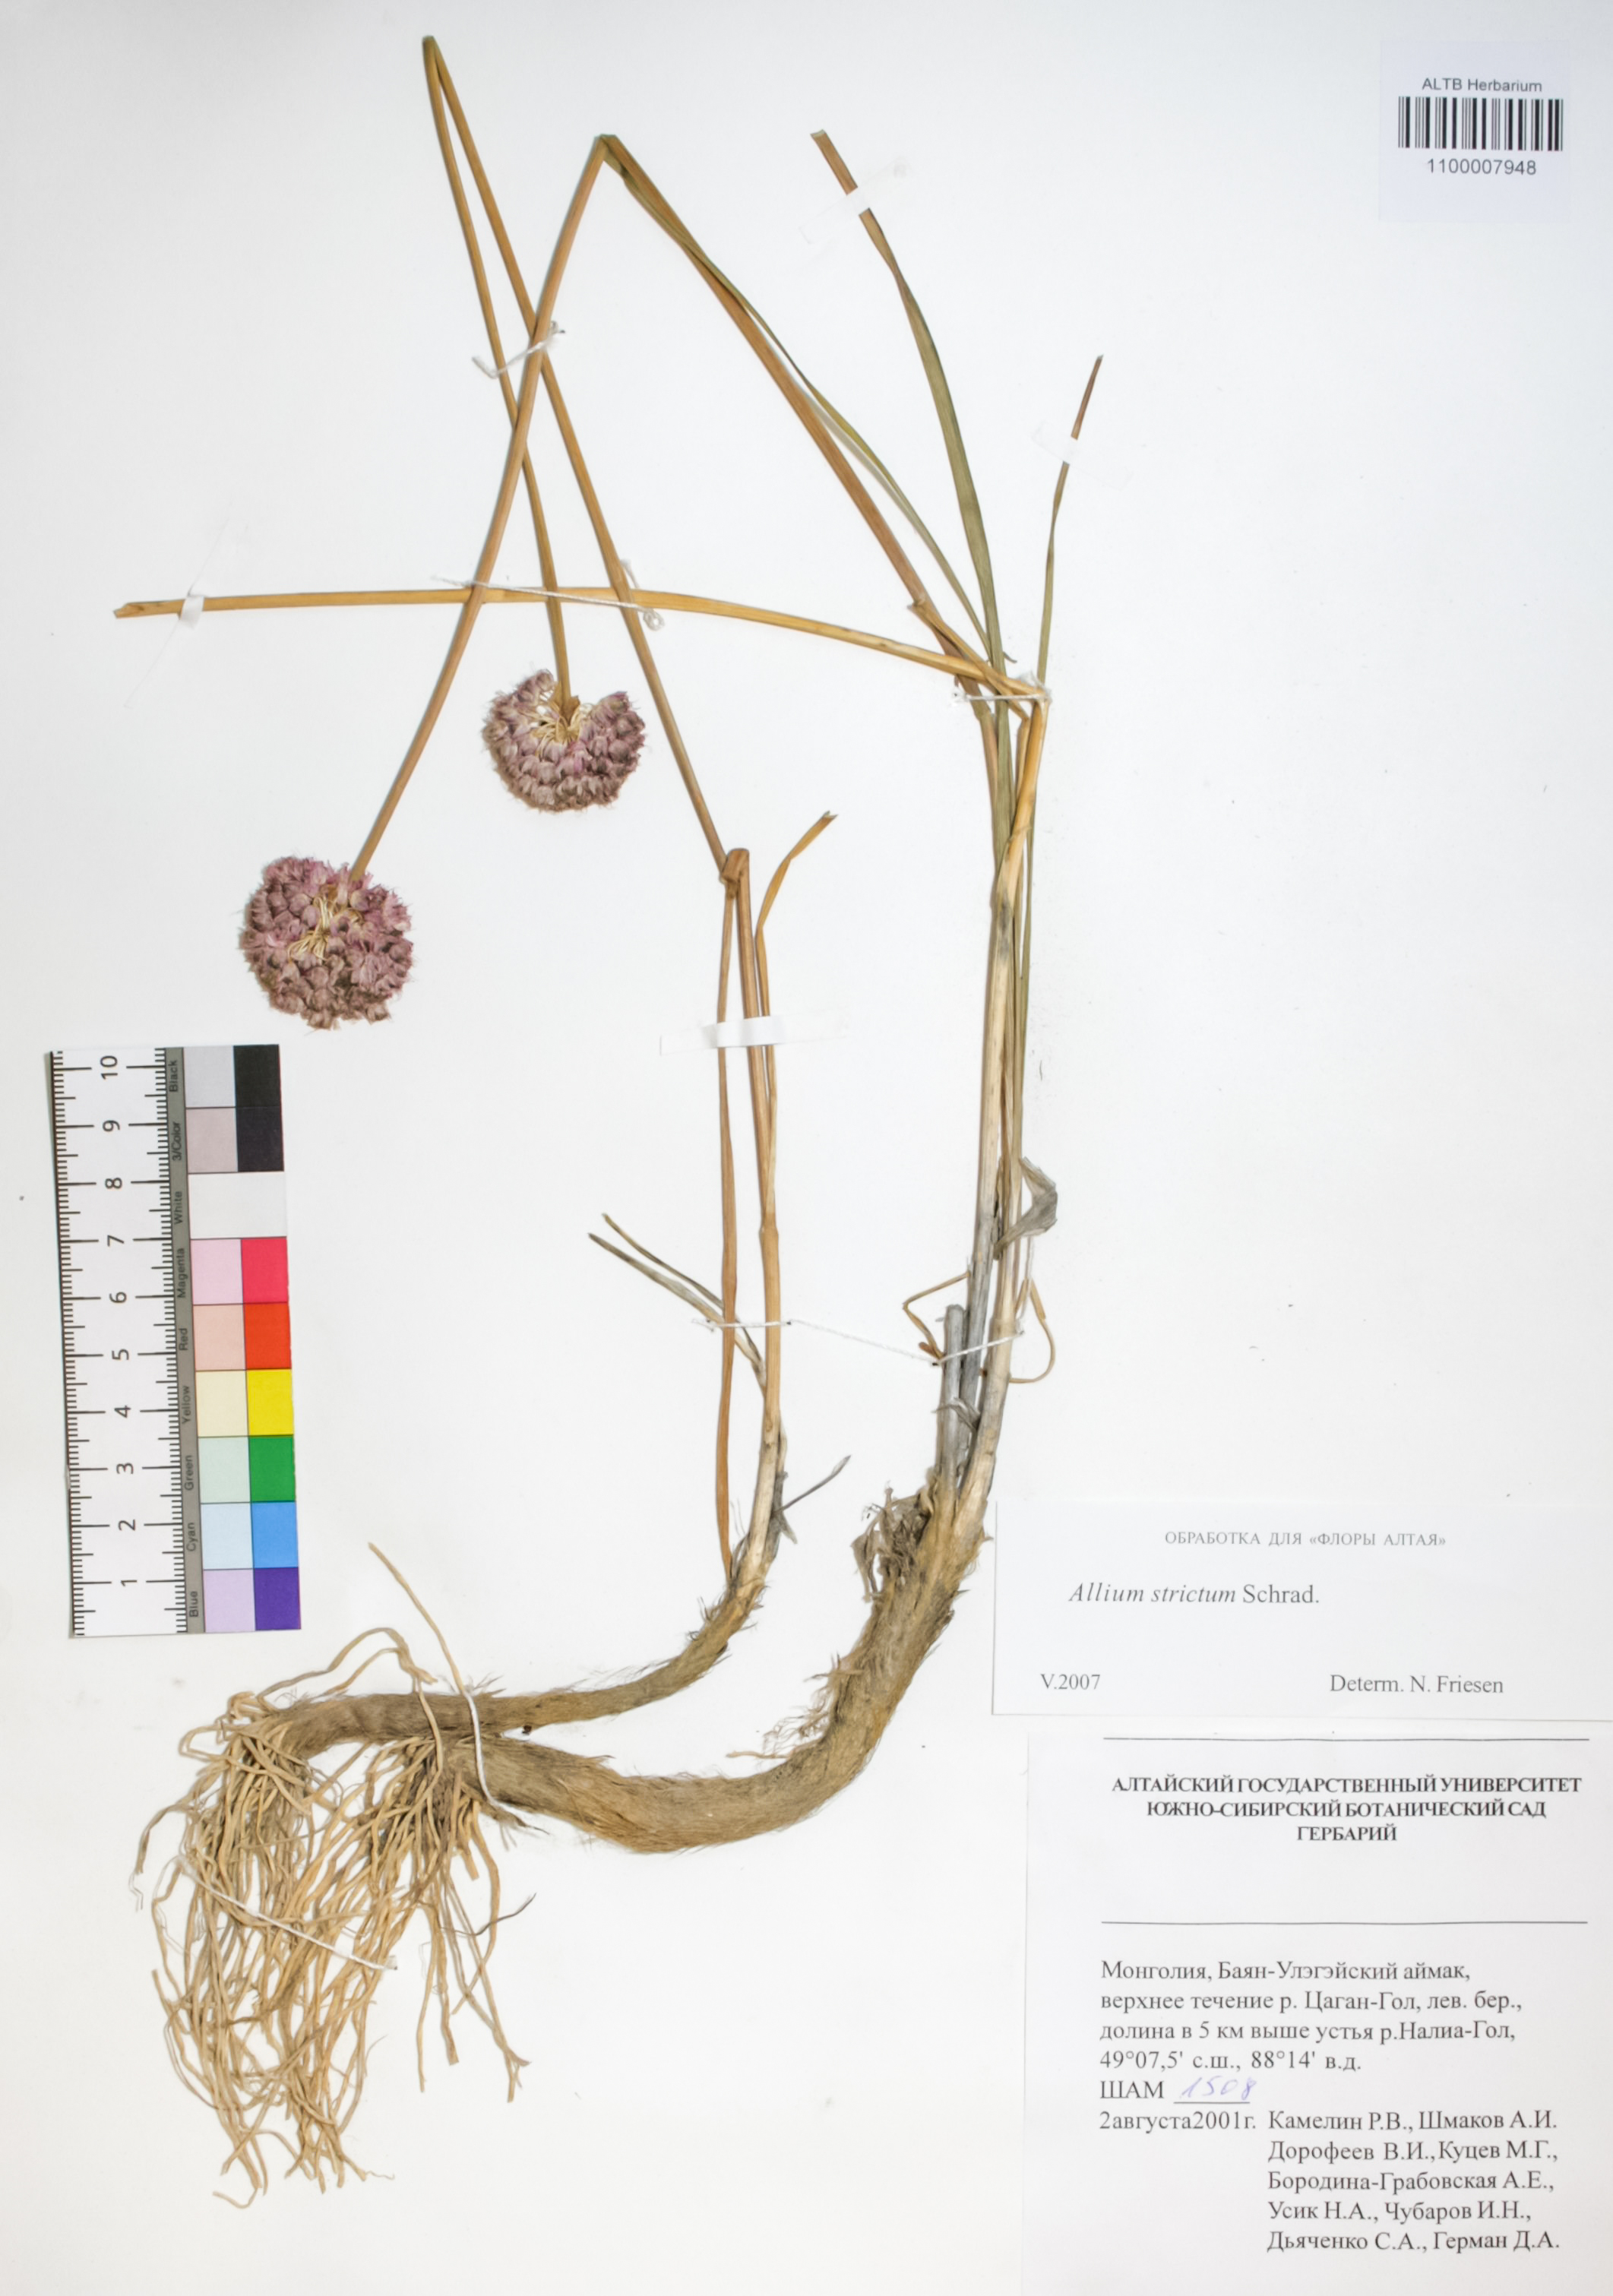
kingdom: Plantae
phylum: Tracheophyta
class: Liliopsida
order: Asparagales
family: Amaryllidaceae
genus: Allium
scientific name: Allium strictum
